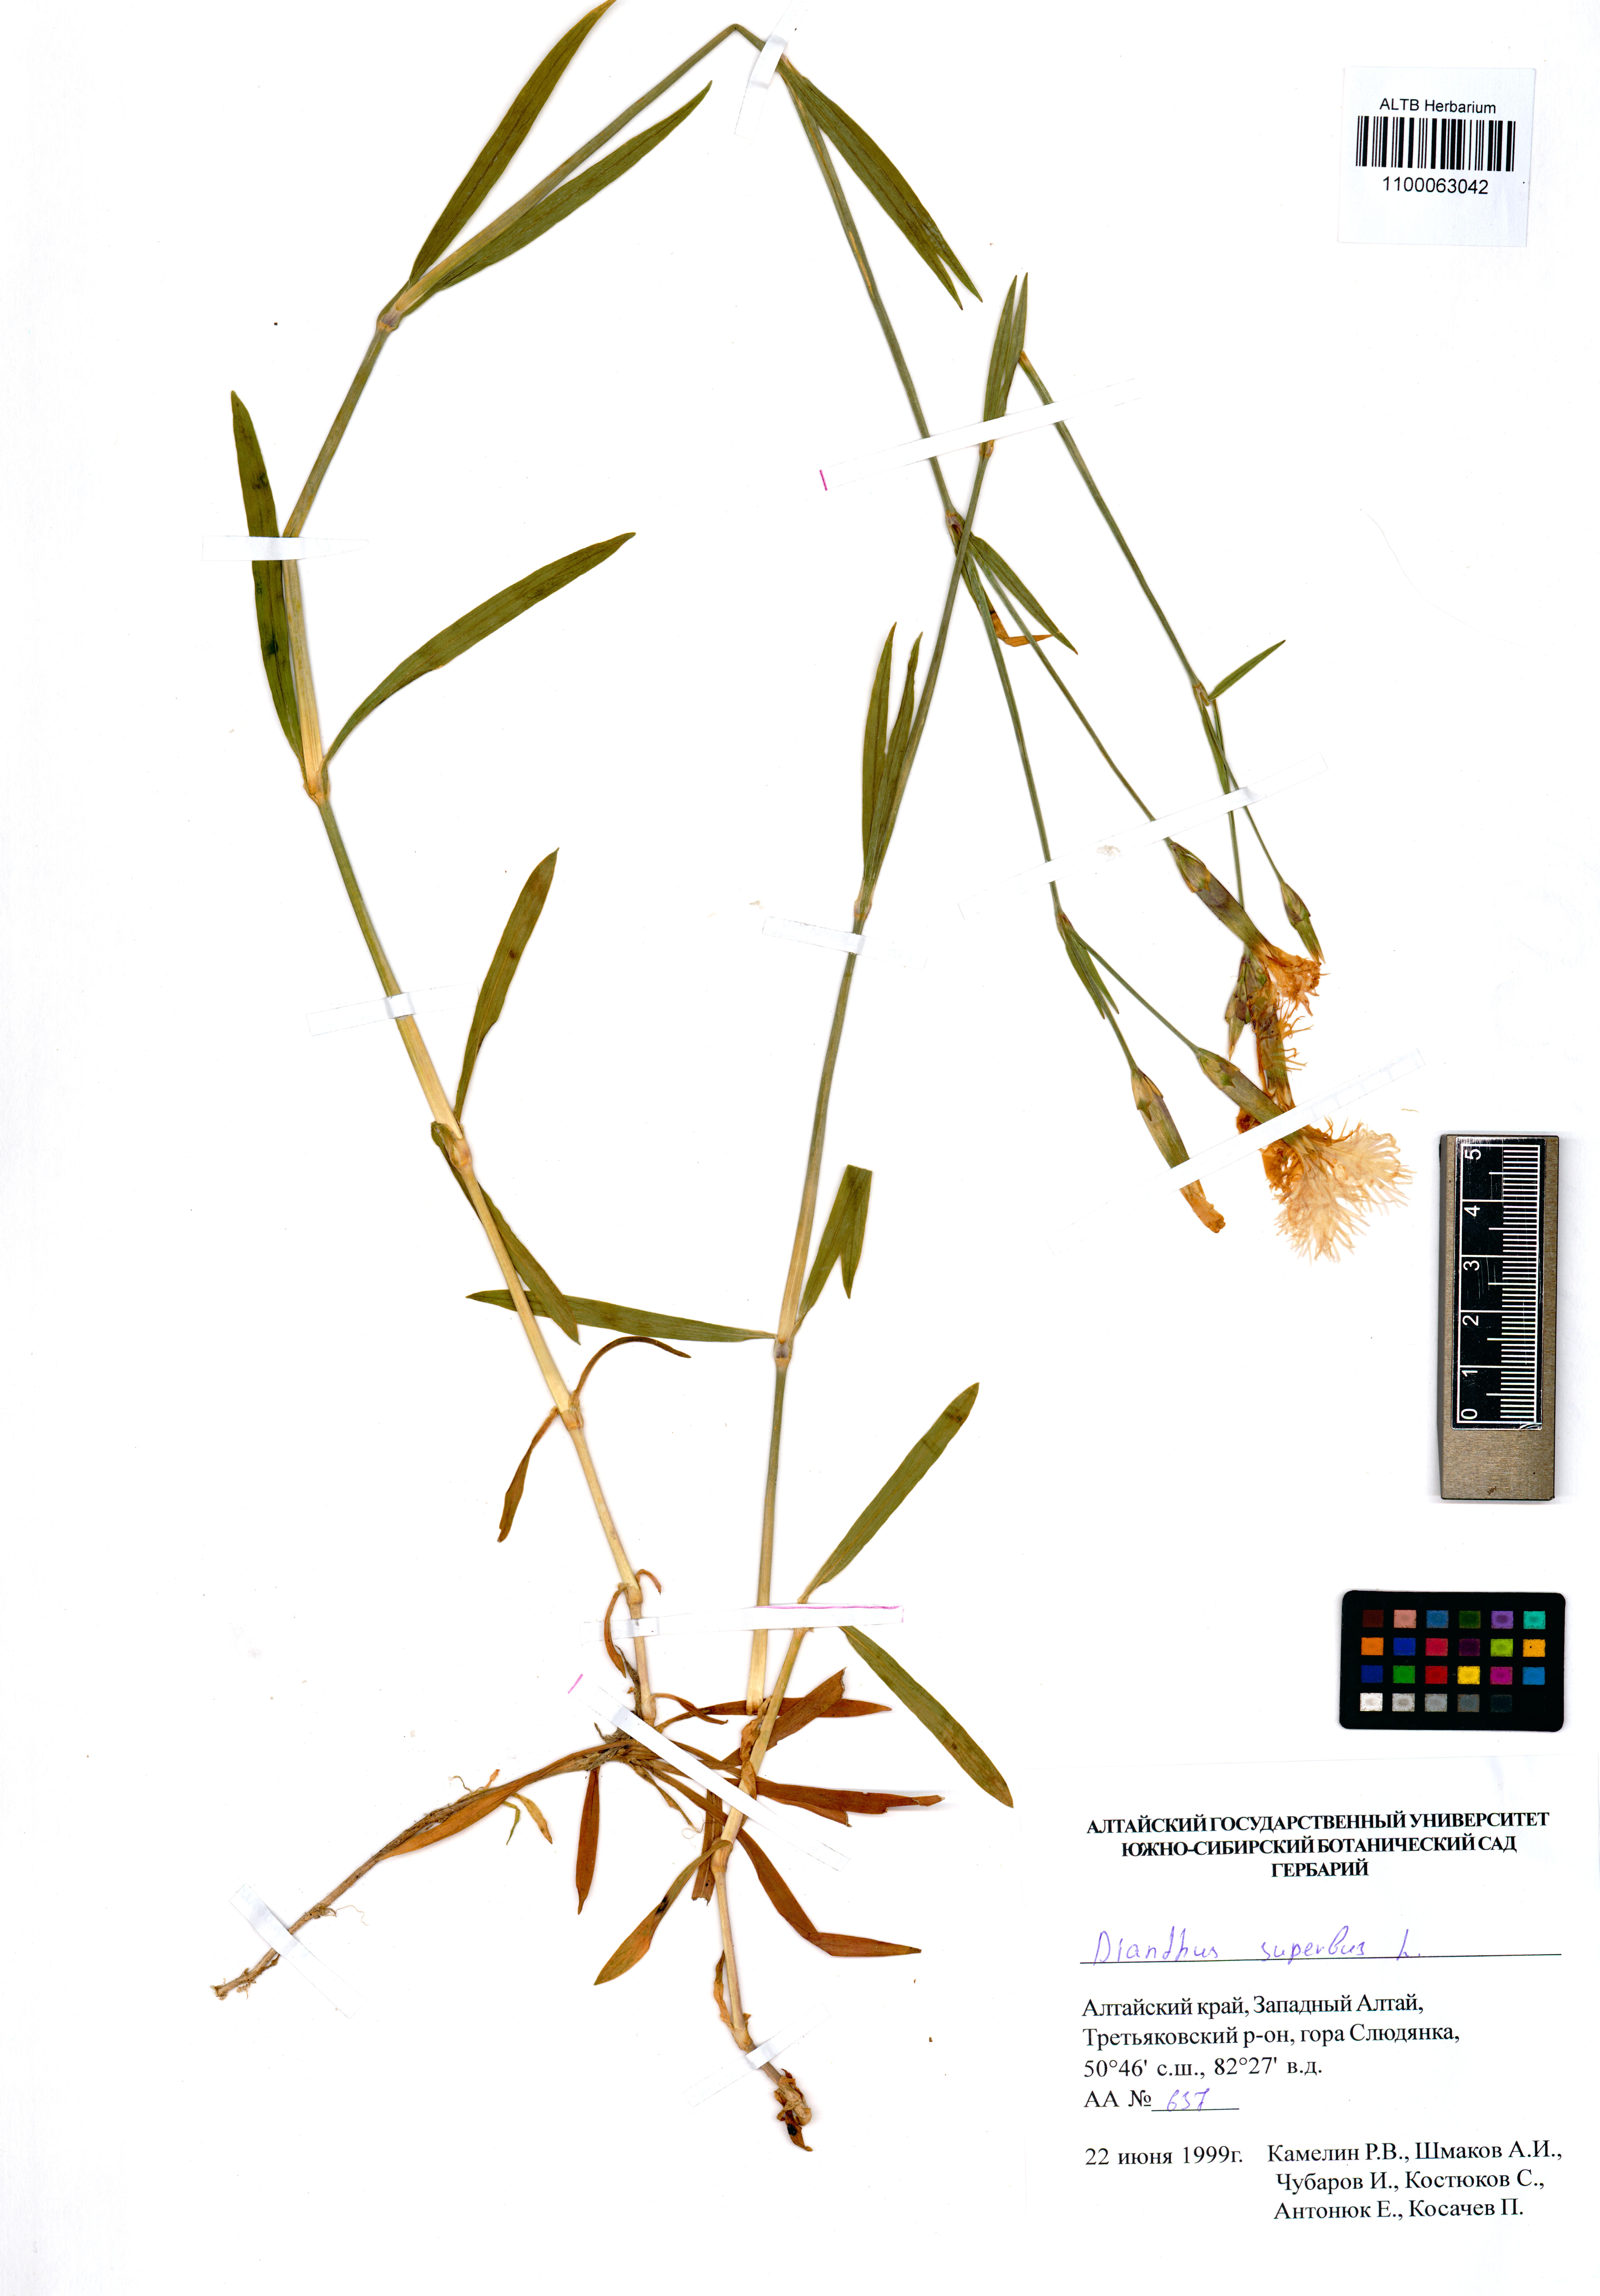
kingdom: Plantae
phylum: Tracheophyta
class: Magnoliopsida
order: Caryophyllales
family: Caryophyllaceae
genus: Dianthus
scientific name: Dianthus superbus
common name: Fringed pink
